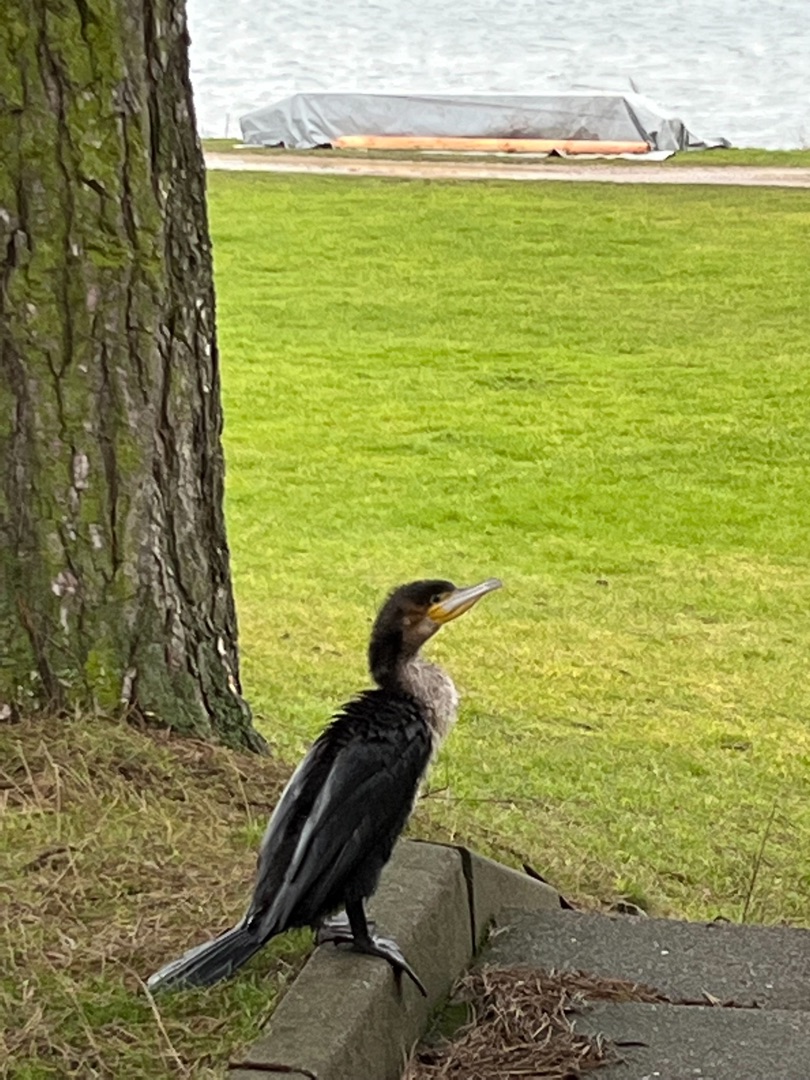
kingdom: Animalia
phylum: Chordata
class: Aves
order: Suliformes
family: Phalacrocoracidae
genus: Phalacrocorax
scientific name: Phalacrocorax carbo
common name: Skarv
